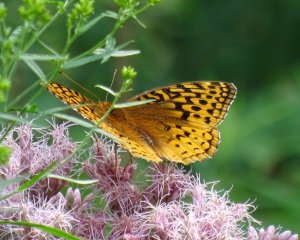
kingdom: Animalia
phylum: Arthropoda
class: Insecta
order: Lepidoptera
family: Nymphalidae
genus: Speyeria
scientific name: Speyeria cybele
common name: Great Spangled Fritillary
